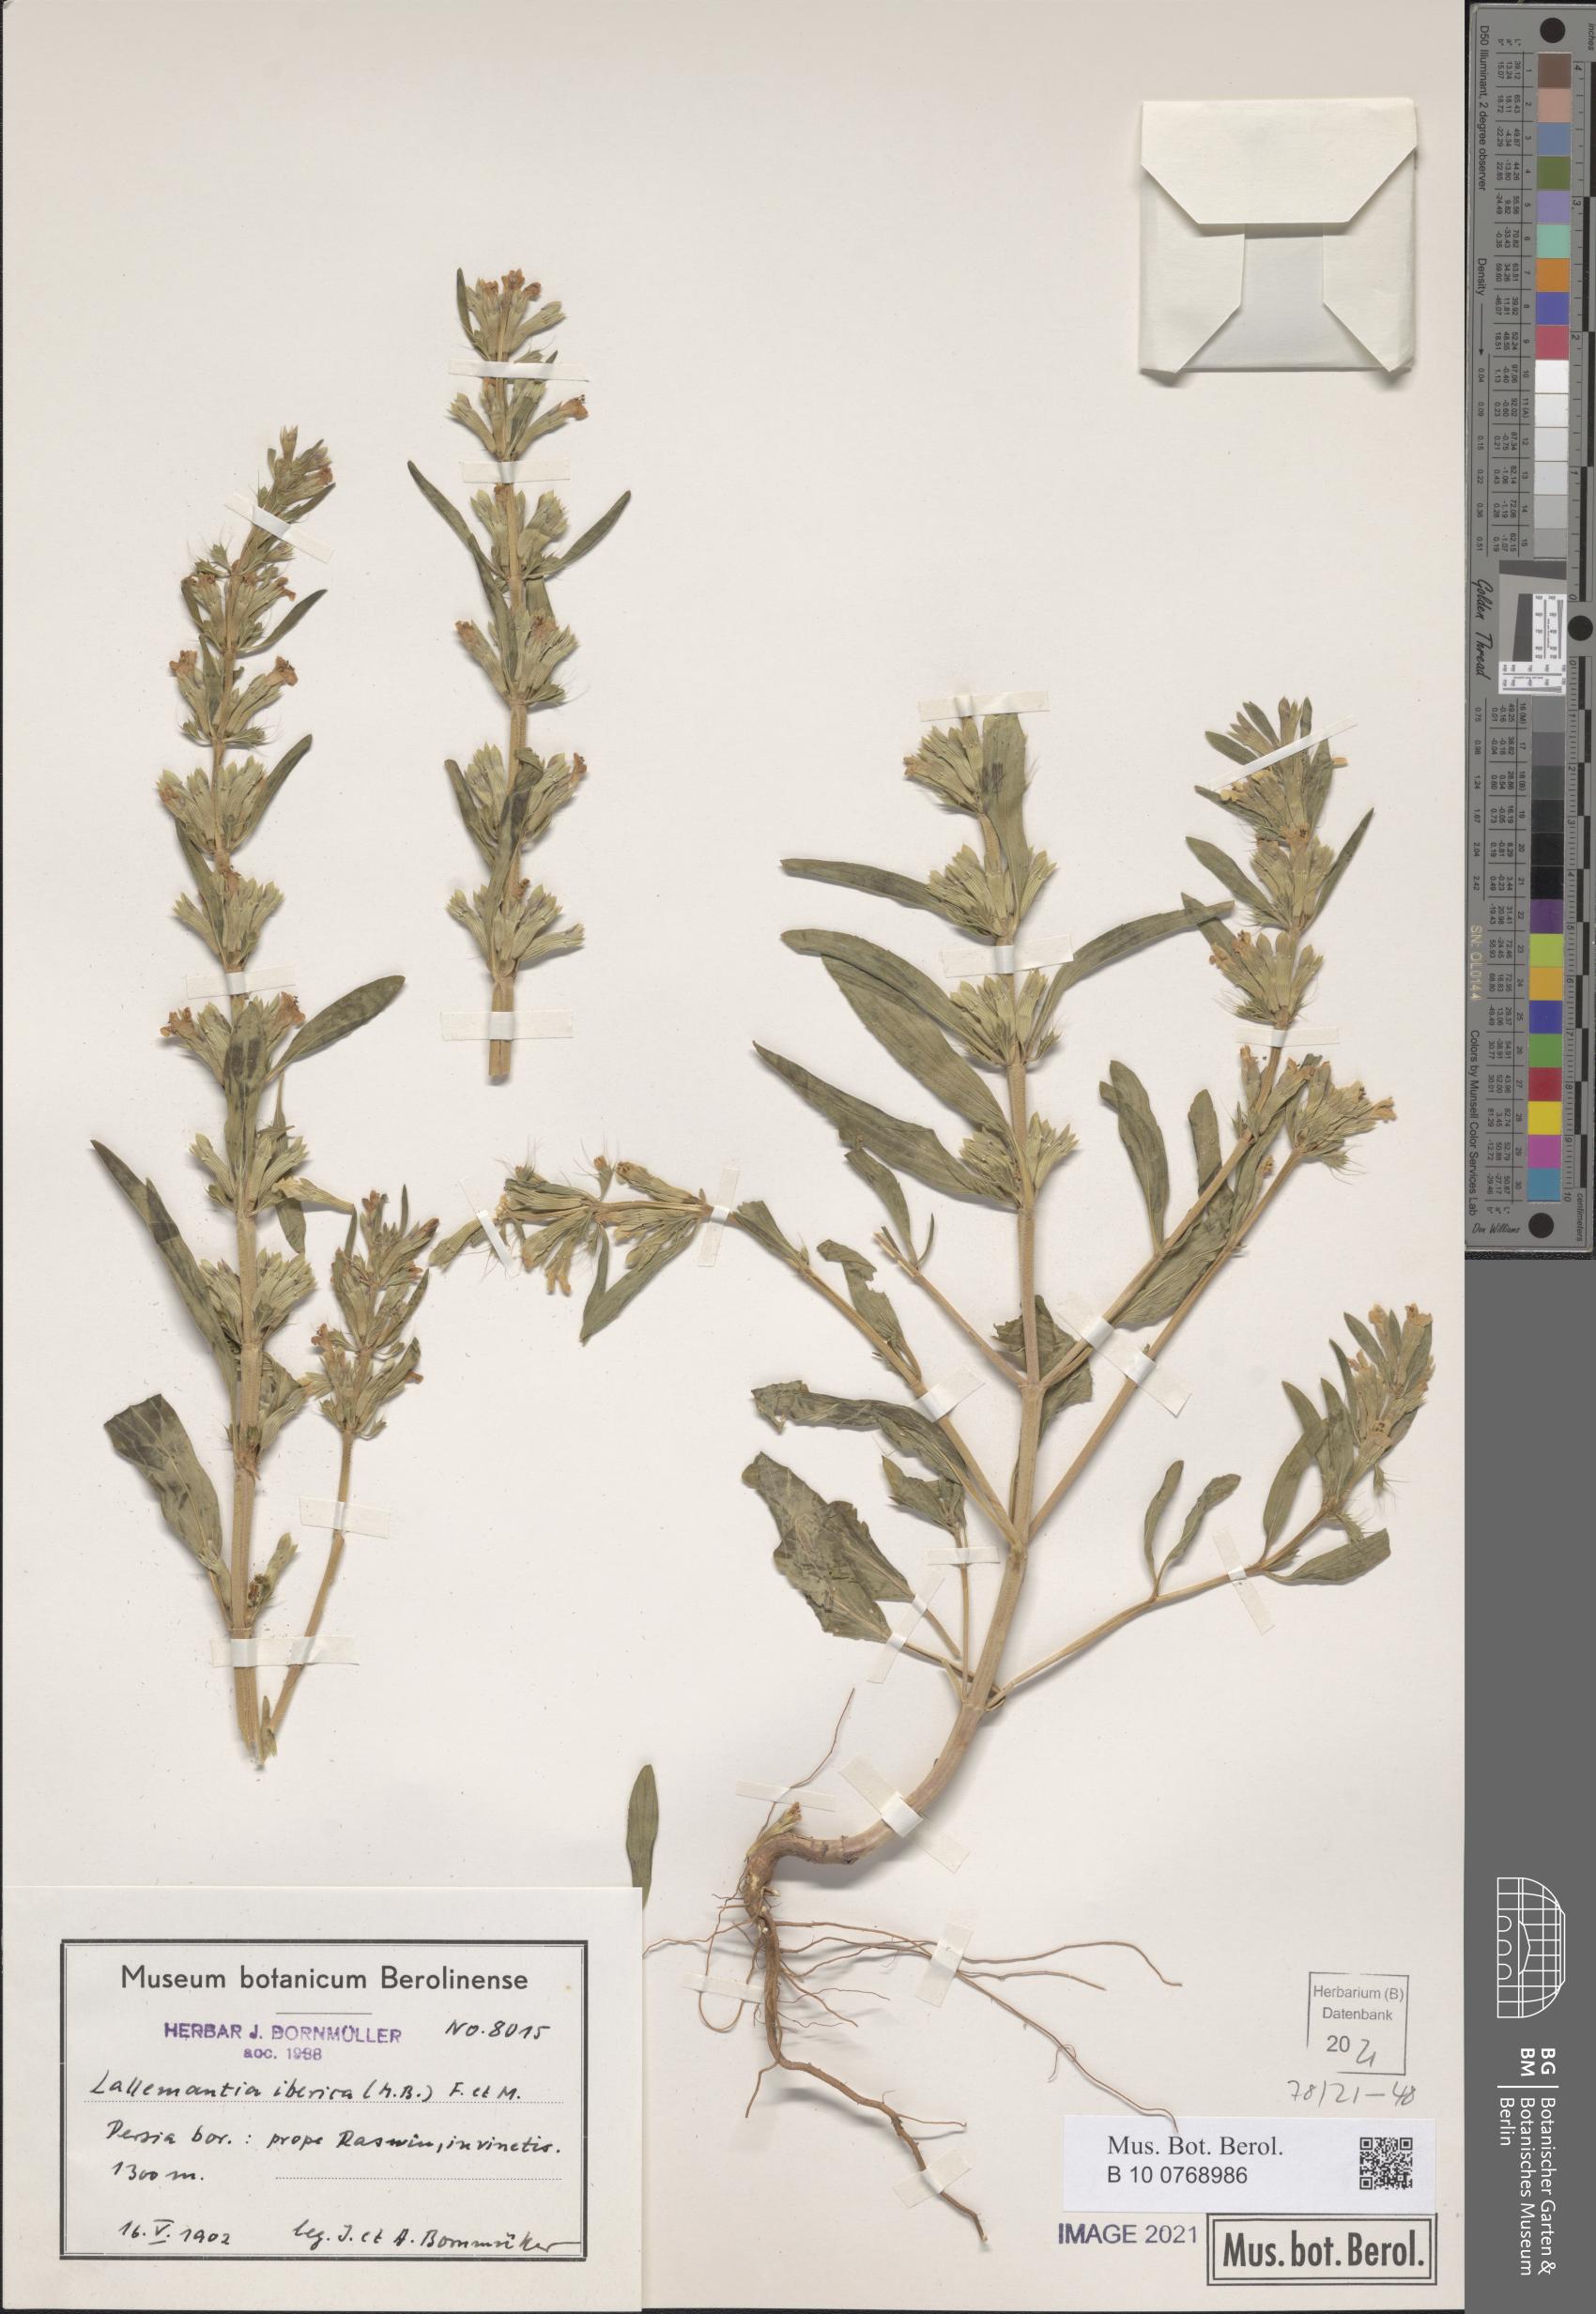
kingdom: Plantae
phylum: Tracheophyta
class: Magnoliopsida
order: Lamiales
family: Lamiaceae
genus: Lallemantia
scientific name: Lallemantia iberica
